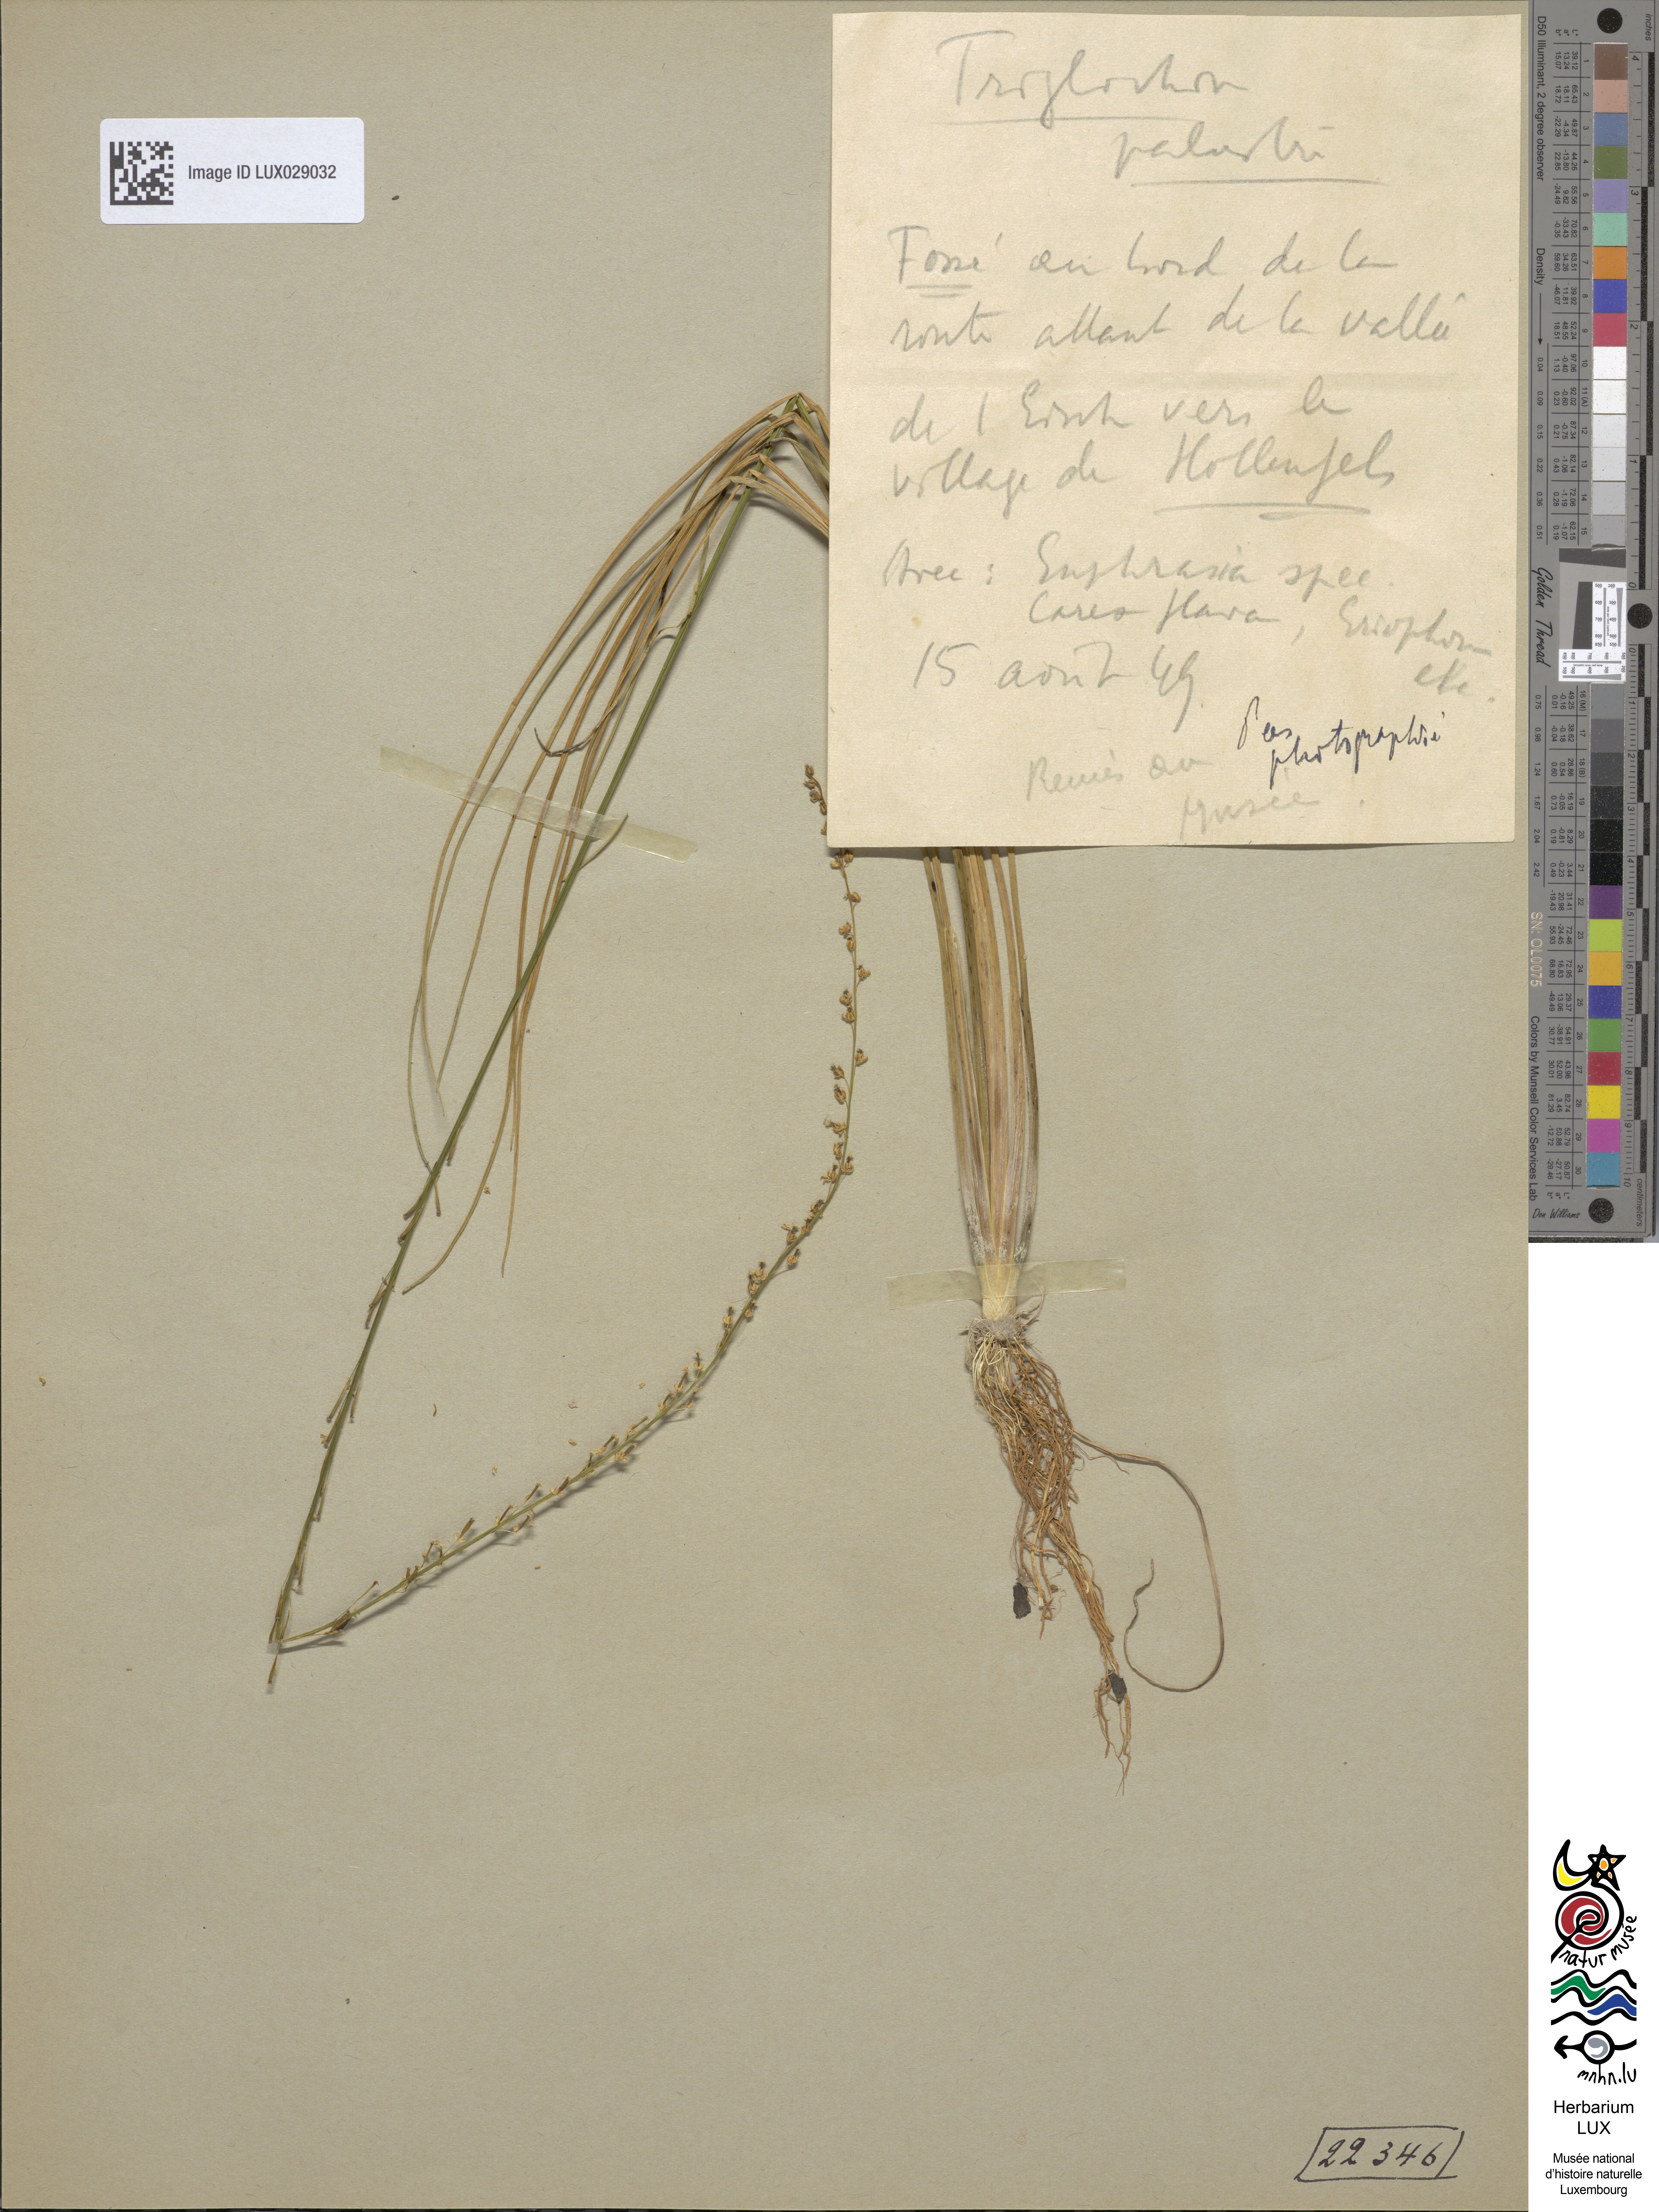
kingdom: Plantae
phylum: Tracheophyta
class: Liliopsida
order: Alismatales
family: Juncaginaceae
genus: Triglochin
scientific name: Triglochin palustris
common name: Marsh arrowgrass
